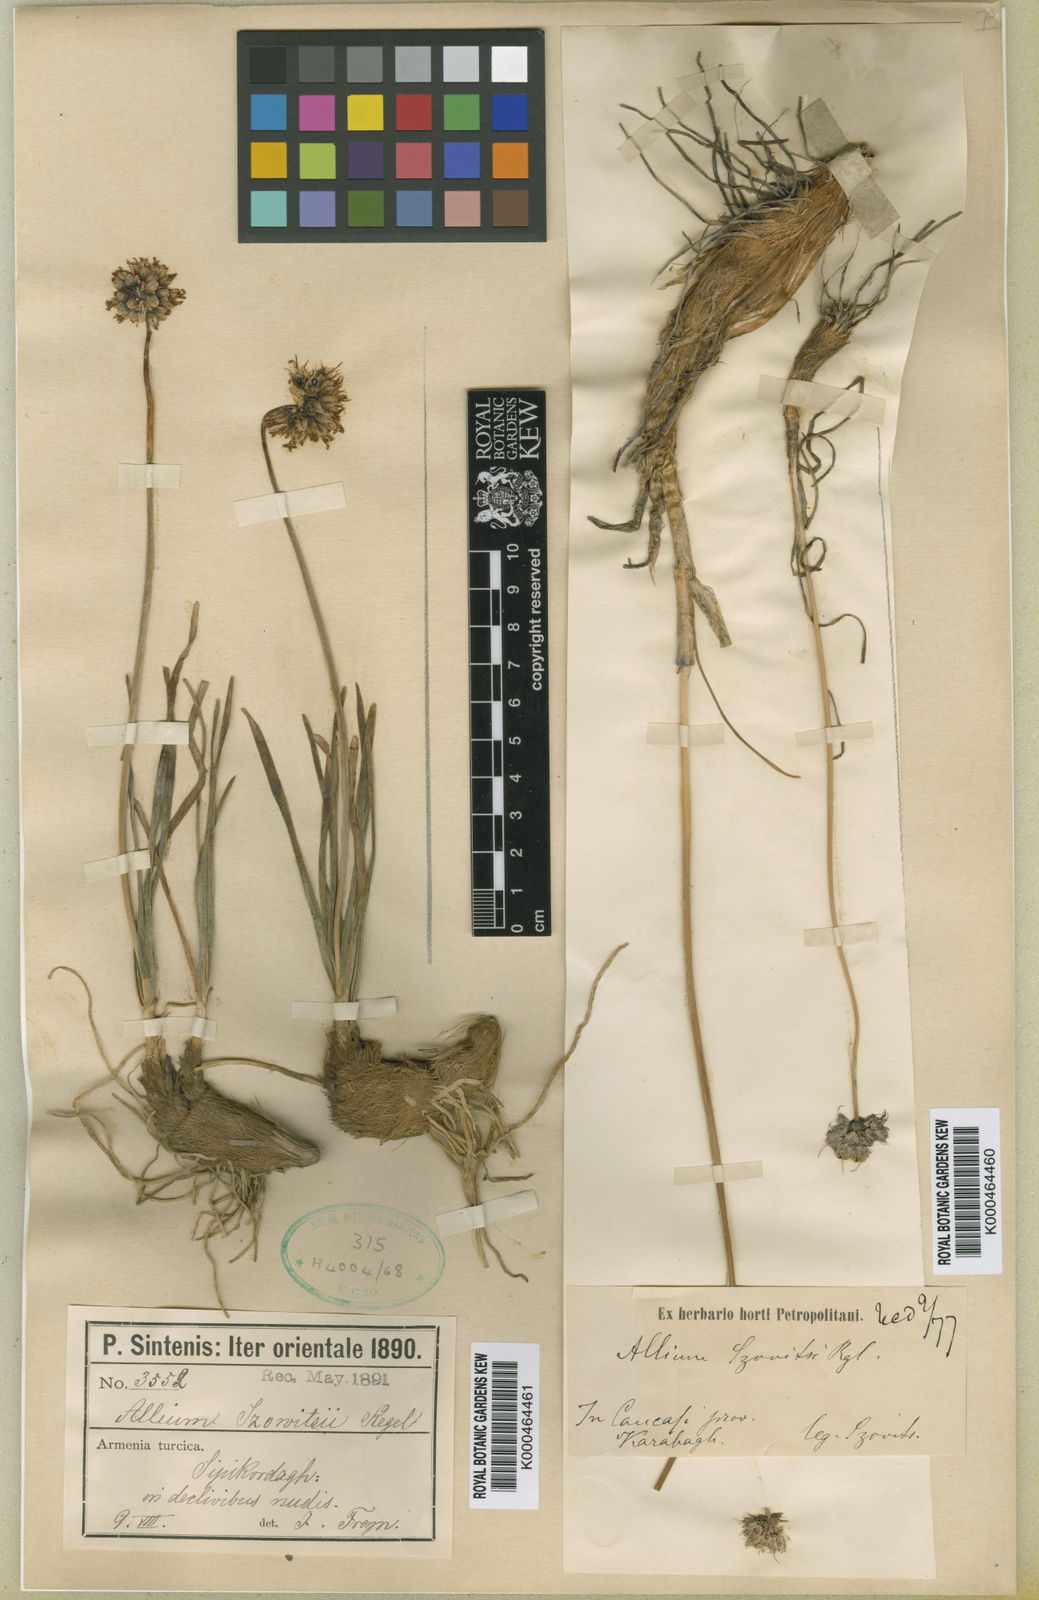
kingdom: Plantae
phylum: Tracheophyta
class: Liliopsida
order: Asparagales
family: Amaryllidaceae
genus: Allium
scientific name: Allium szovitsii
